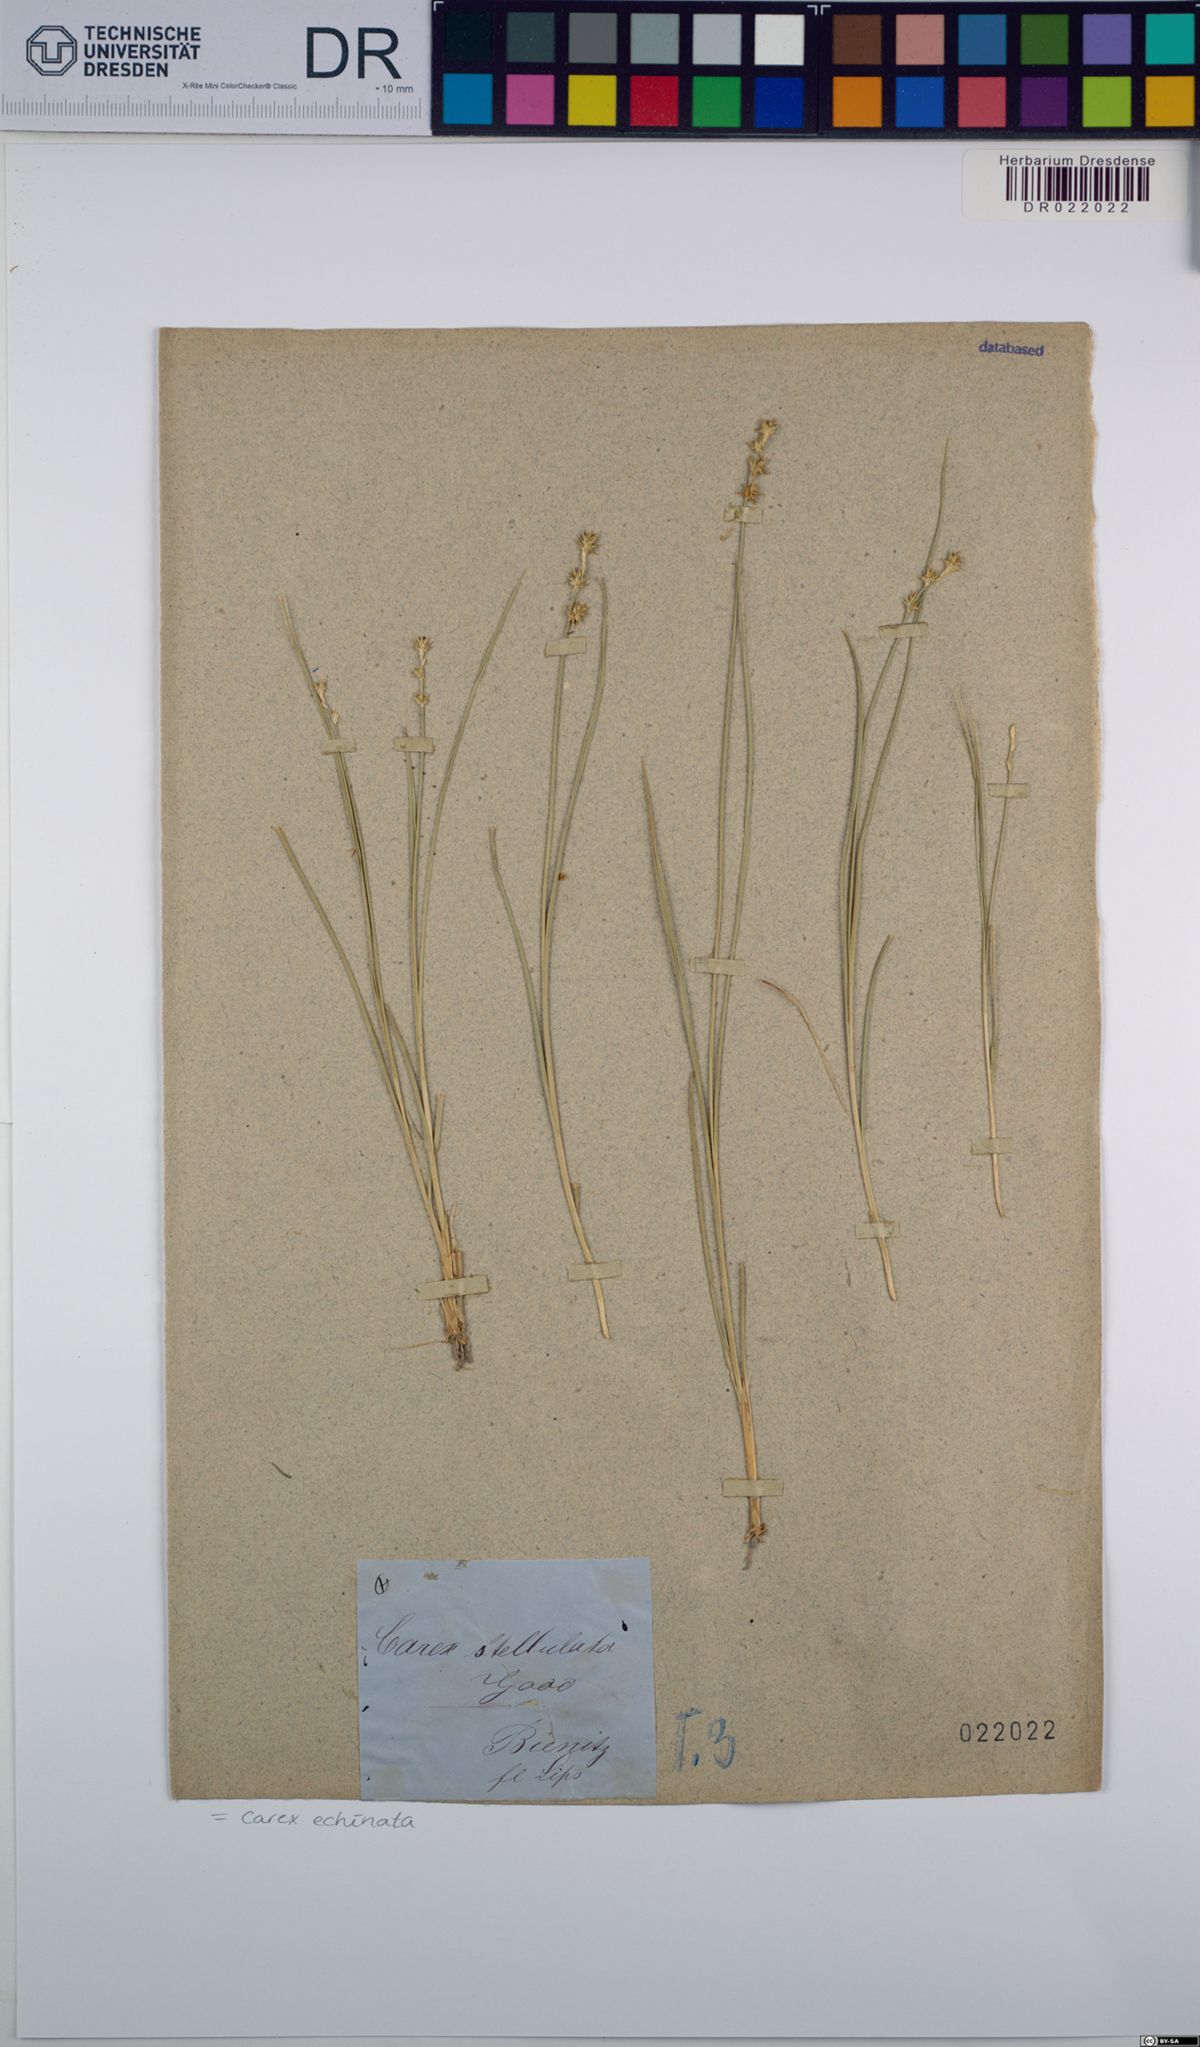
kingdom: Plantae
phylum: Tracheophyta
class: Liliopsida
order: Poales
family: Cyperaceae
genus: Carex
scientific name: Carex echinata
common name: Star sedge
